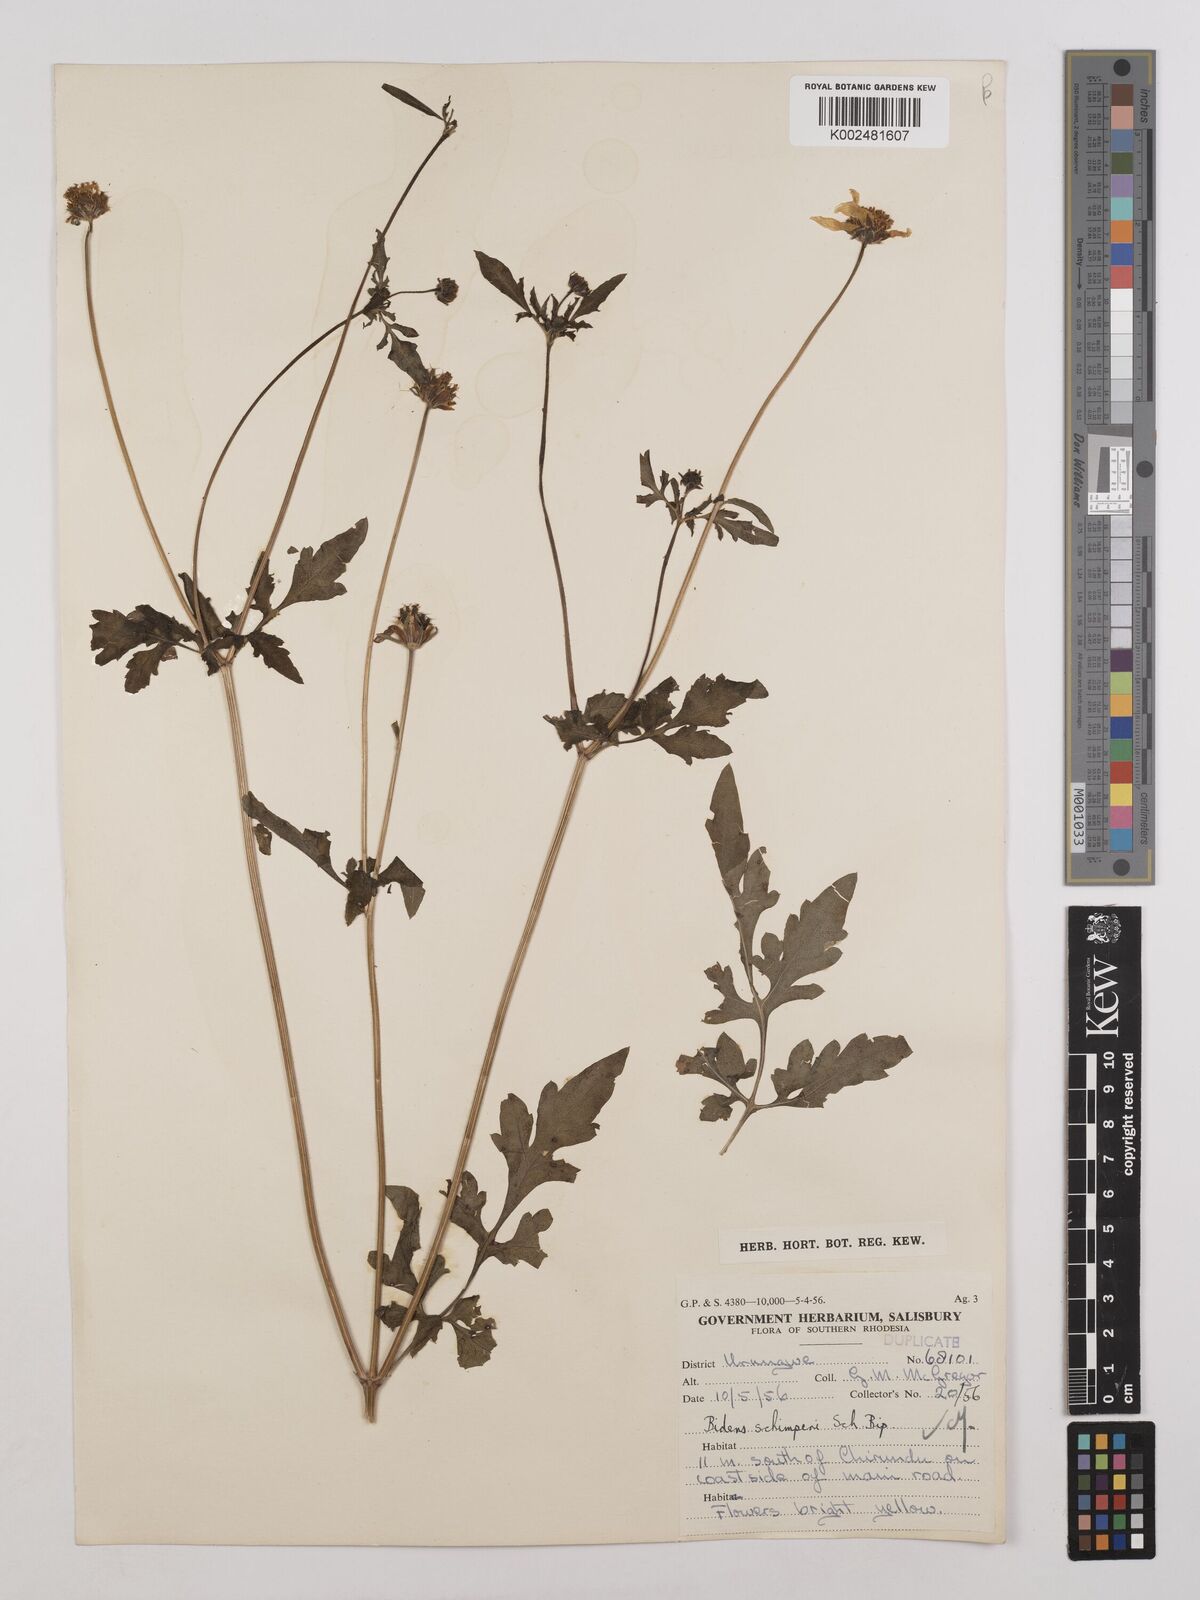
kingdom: Plantae
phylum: Tracheophyta
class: Magnoliopsida
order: Asterales
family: Asteraceae
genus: Bidens
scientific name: Bidens schimperi
